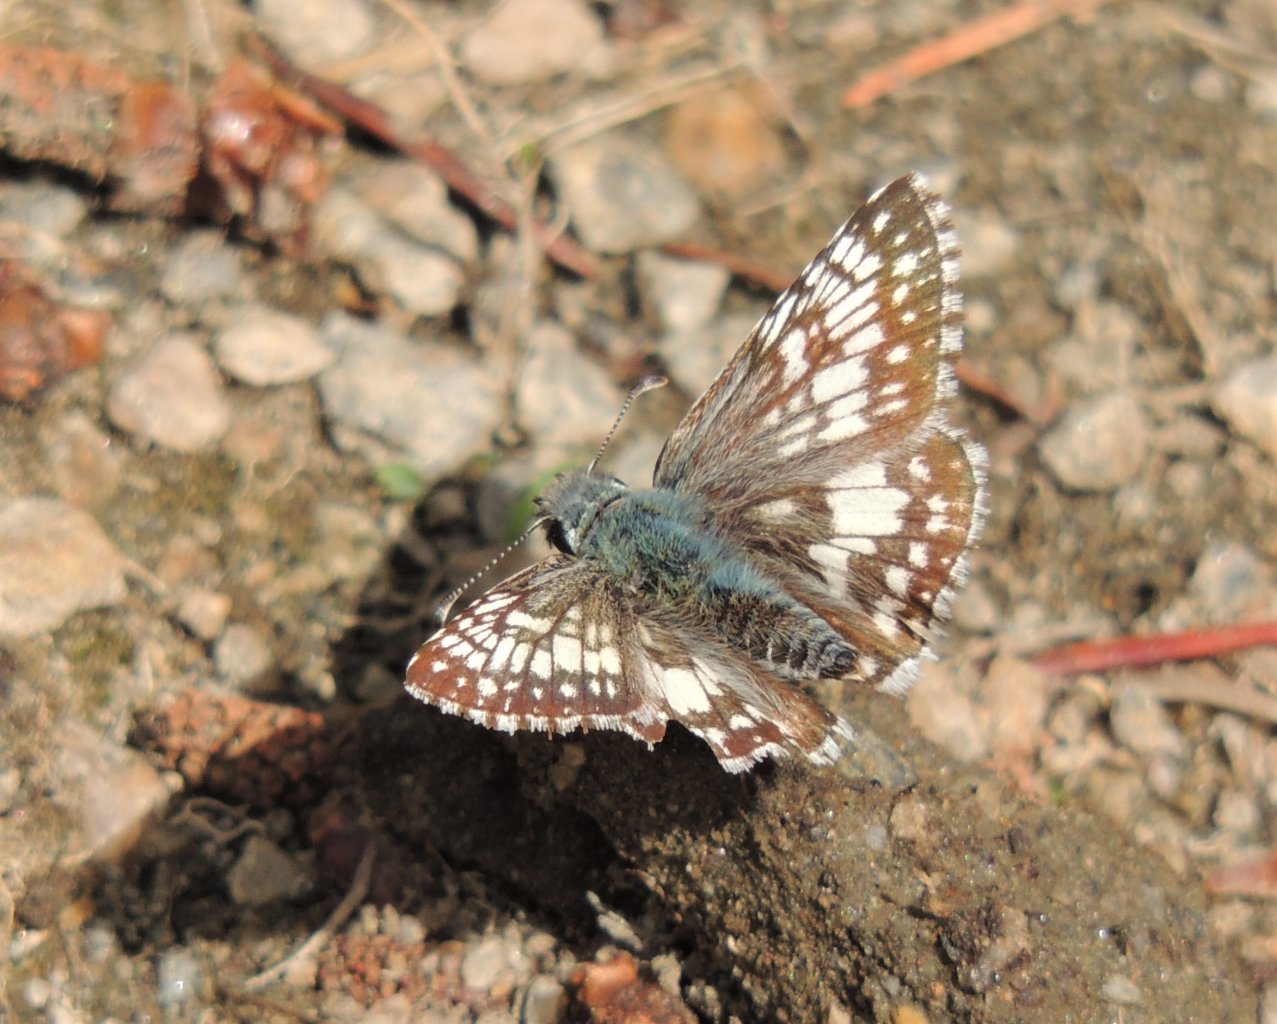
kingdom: Animalia
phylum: Arthropoda
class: Insecta
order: Lepidoptera
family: Hesperiidae
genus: Pyrgus
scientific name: Pyrgus communis
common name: Common Checkered-Skipper
